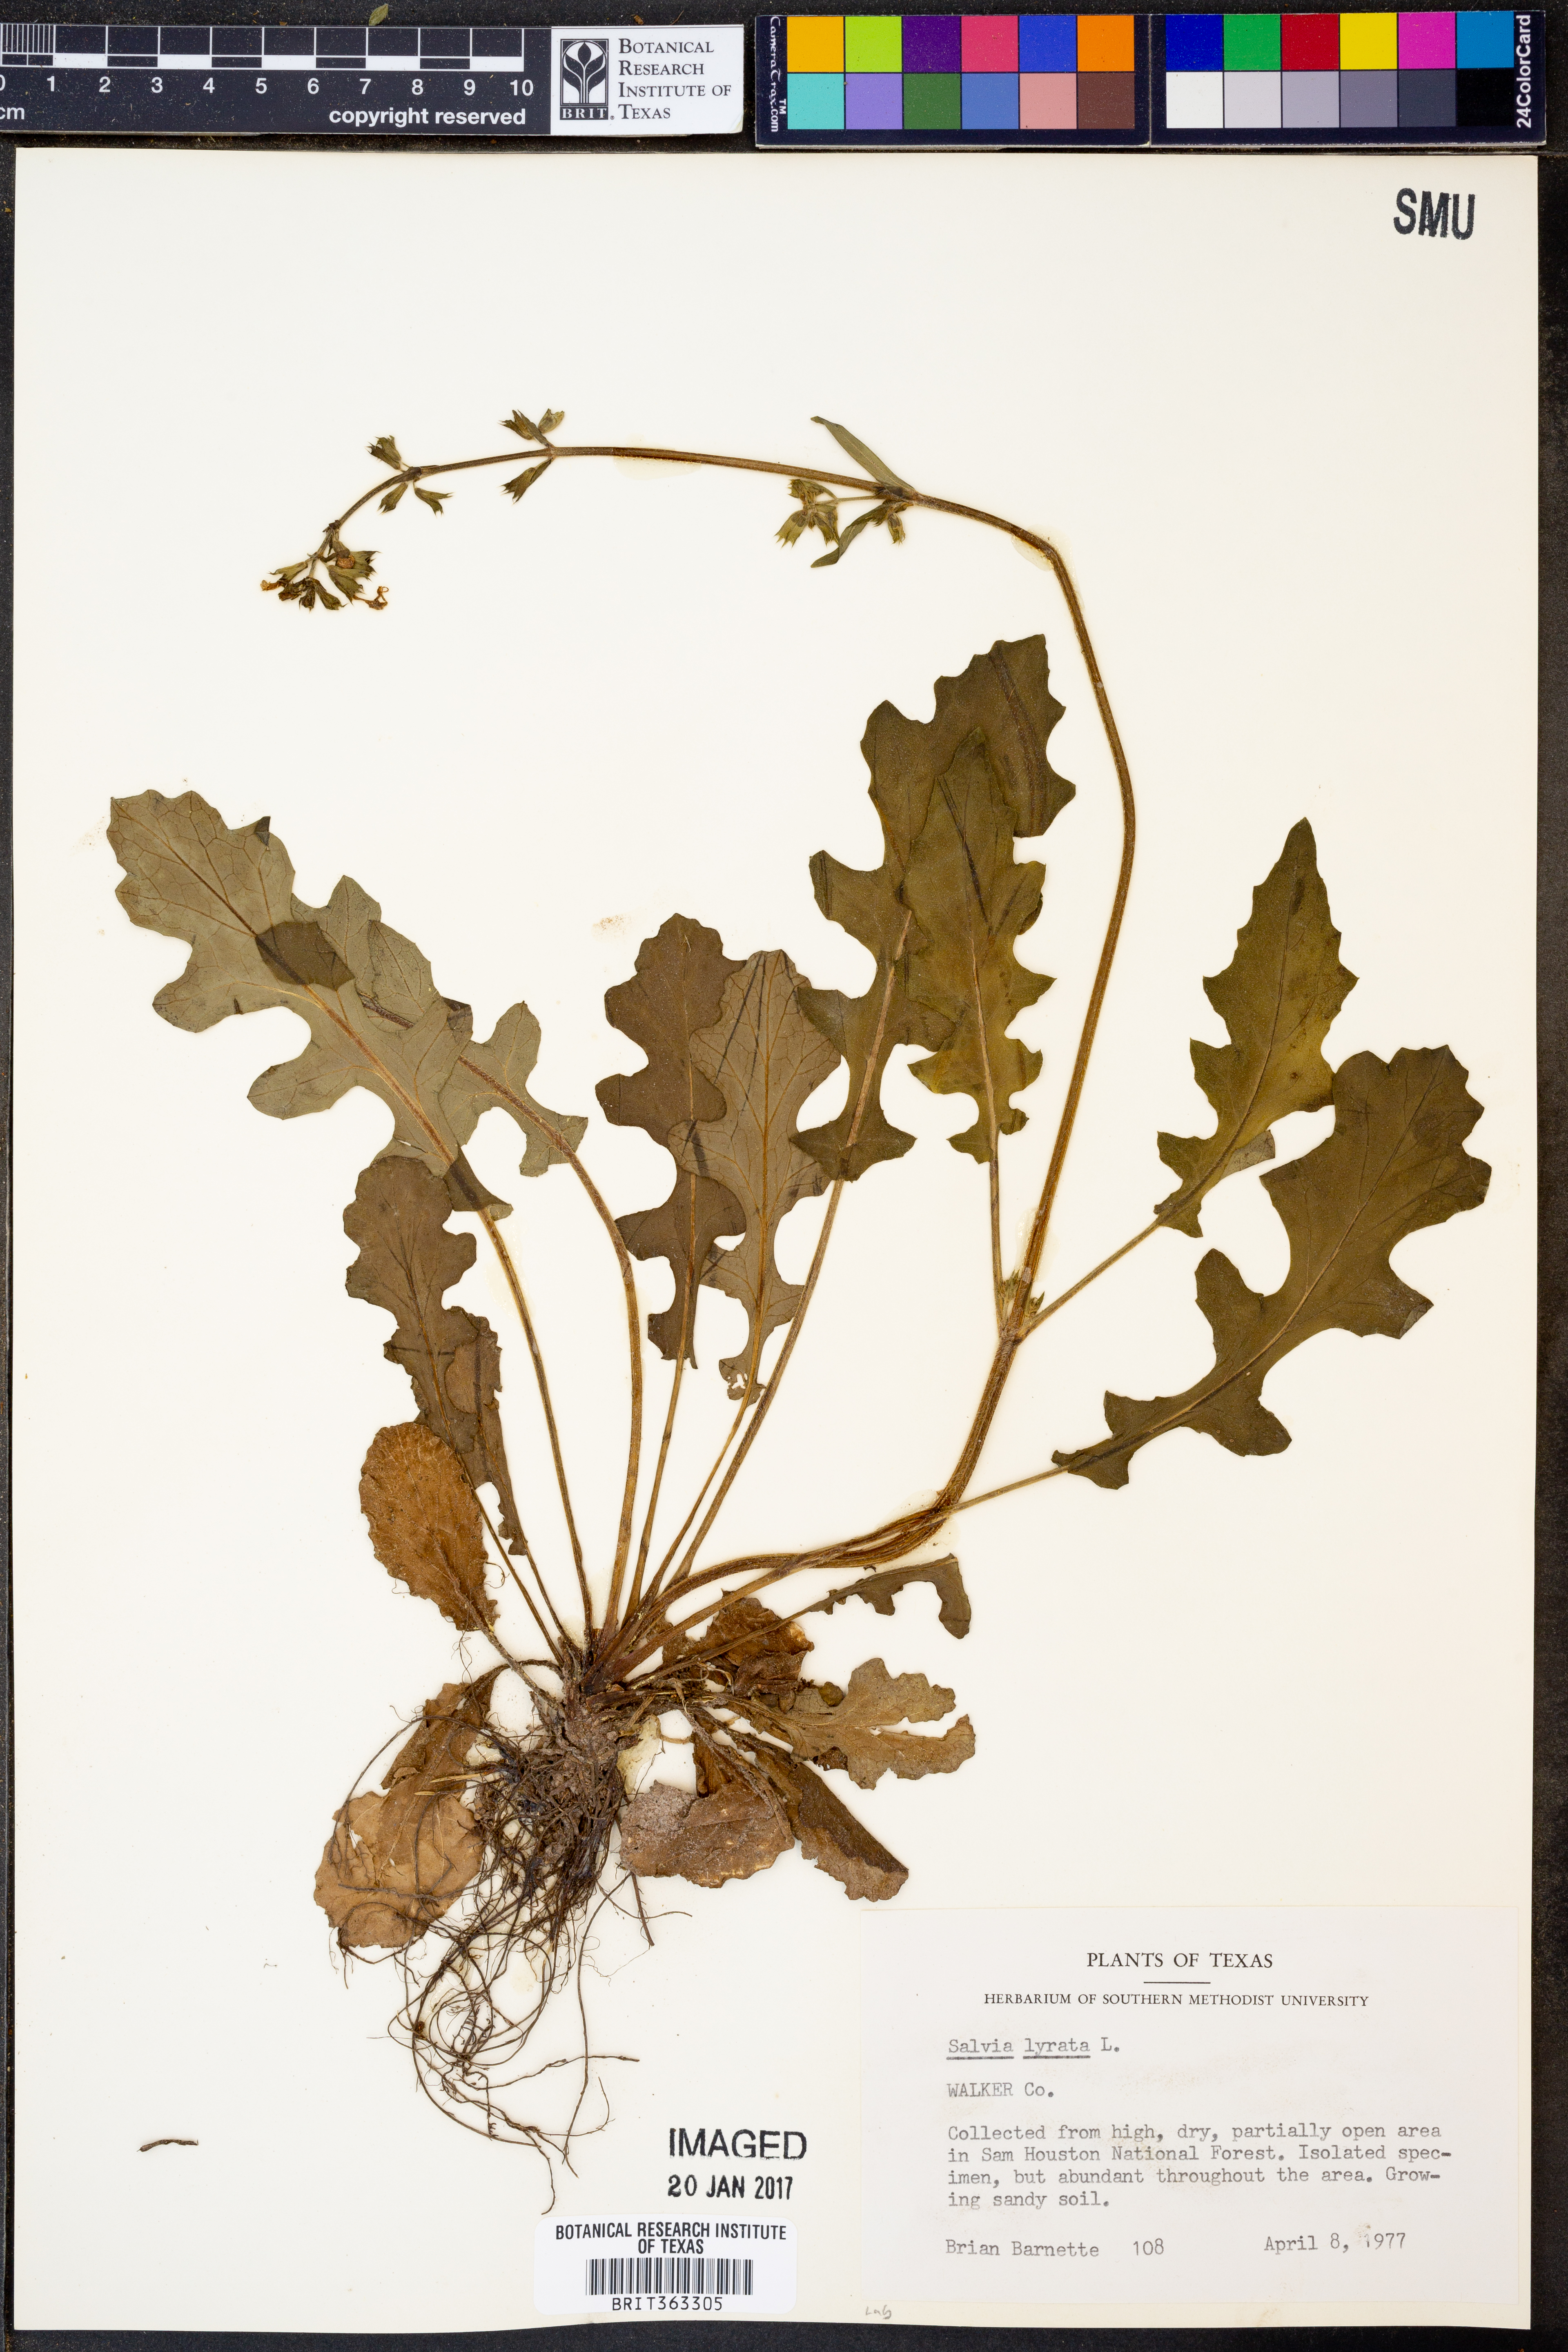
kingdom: Plantae
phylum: Tracheophyta
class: Magnoliopsida
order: Lamiales
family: Lamiaceae
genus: Salvia
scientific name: Salvia lyrata
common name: Cancerweed
